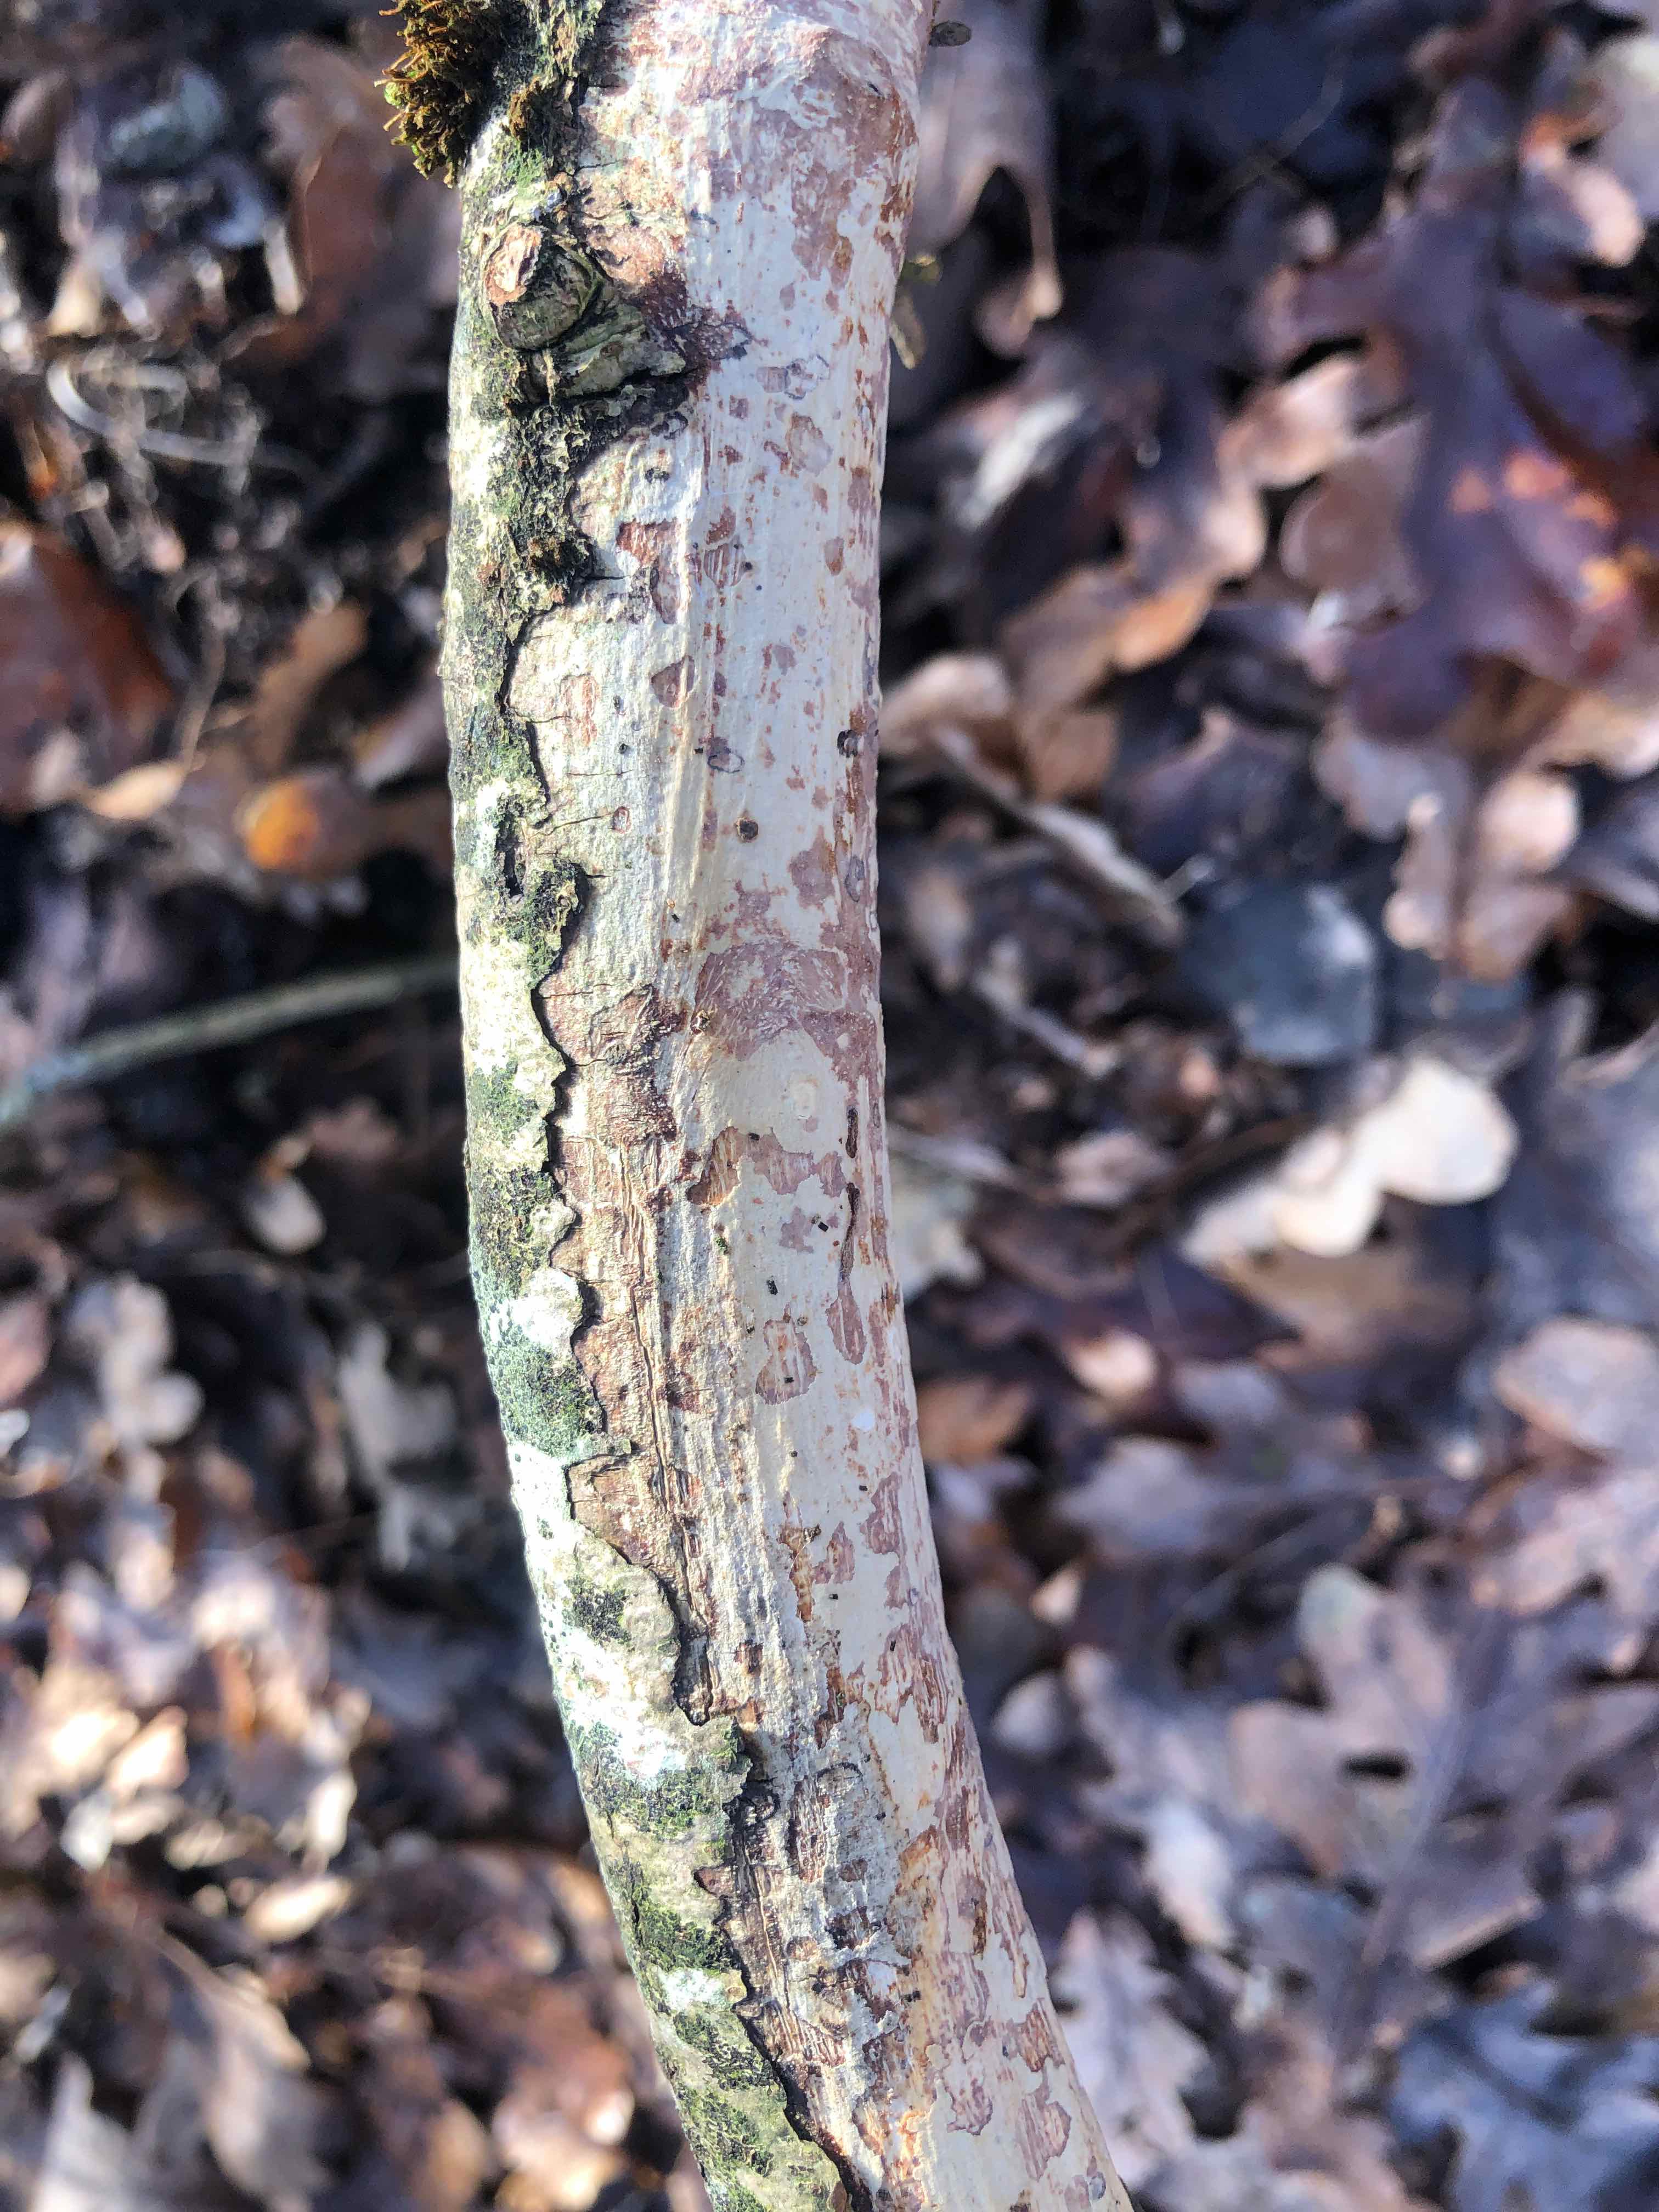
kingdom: Fungi
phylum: Basidiomycota
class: Agaricomycetes
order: Corticiales
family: Vuilleminiaceae
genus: Vuilleminia
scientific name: Vuilleminia comedens
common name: almindelig barksprænger
